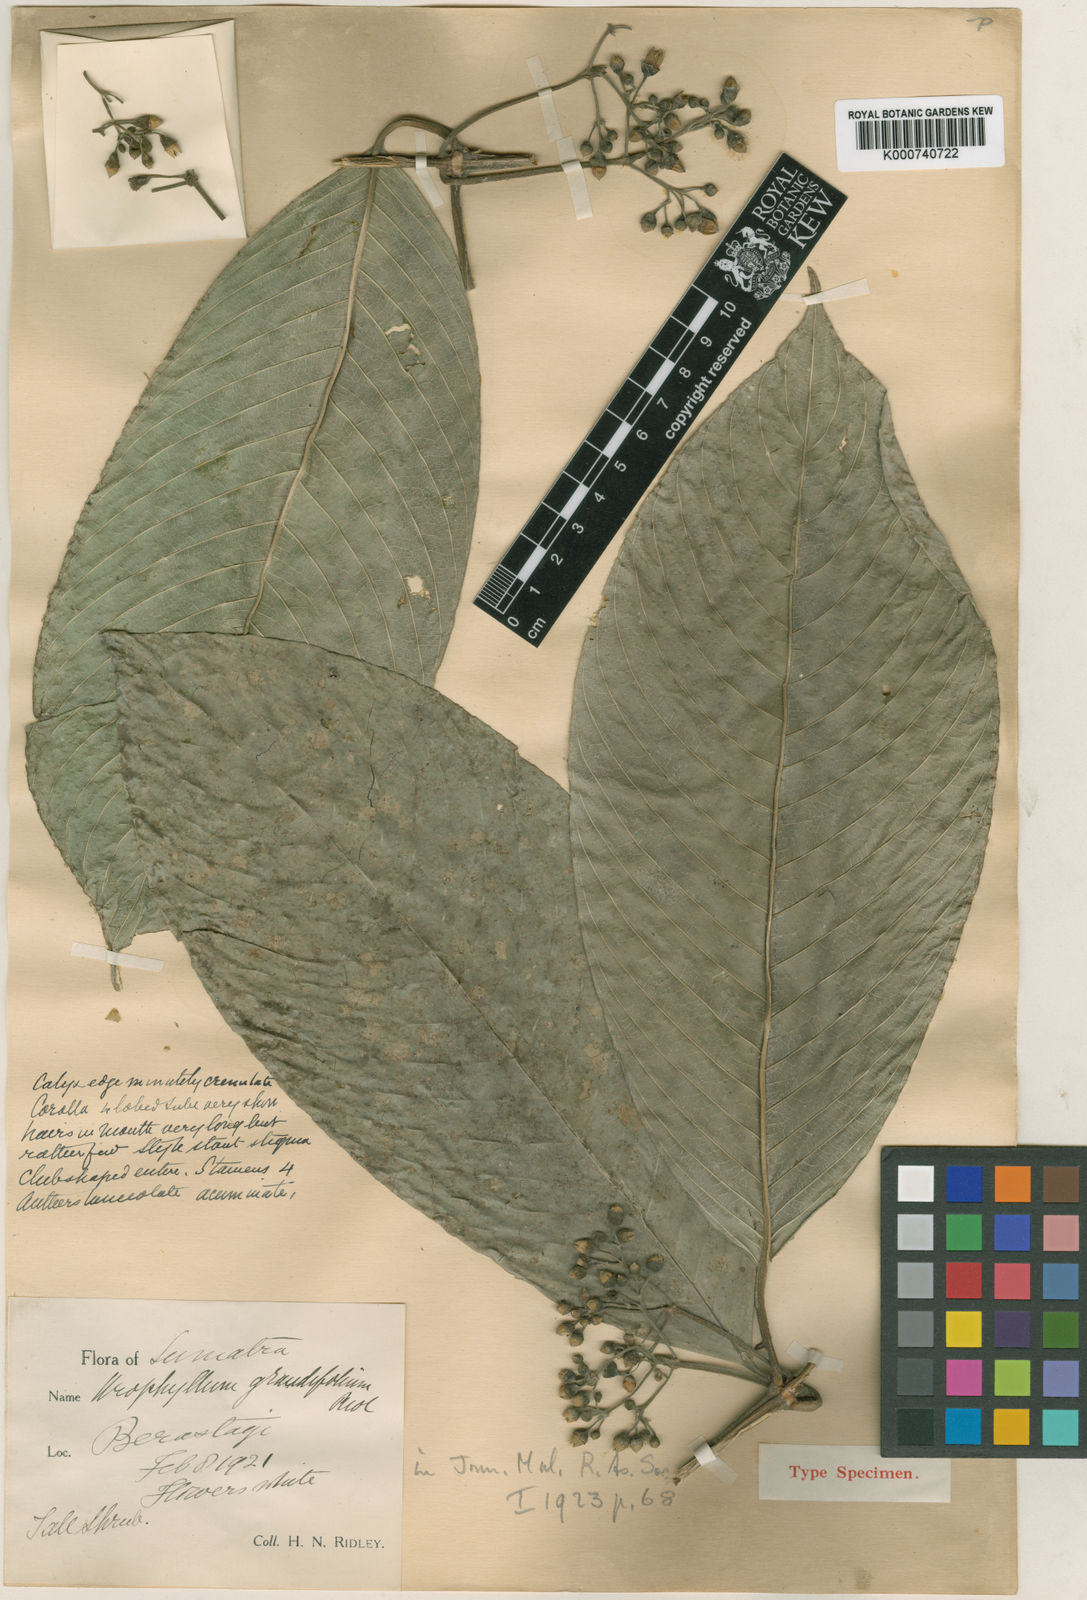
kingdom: Plantae
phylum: Tracheophyta
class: Magnoliopsida
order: Gentianales
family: Rubiaceae
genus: Urophyllum
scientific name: Urophyllum grandifolium
